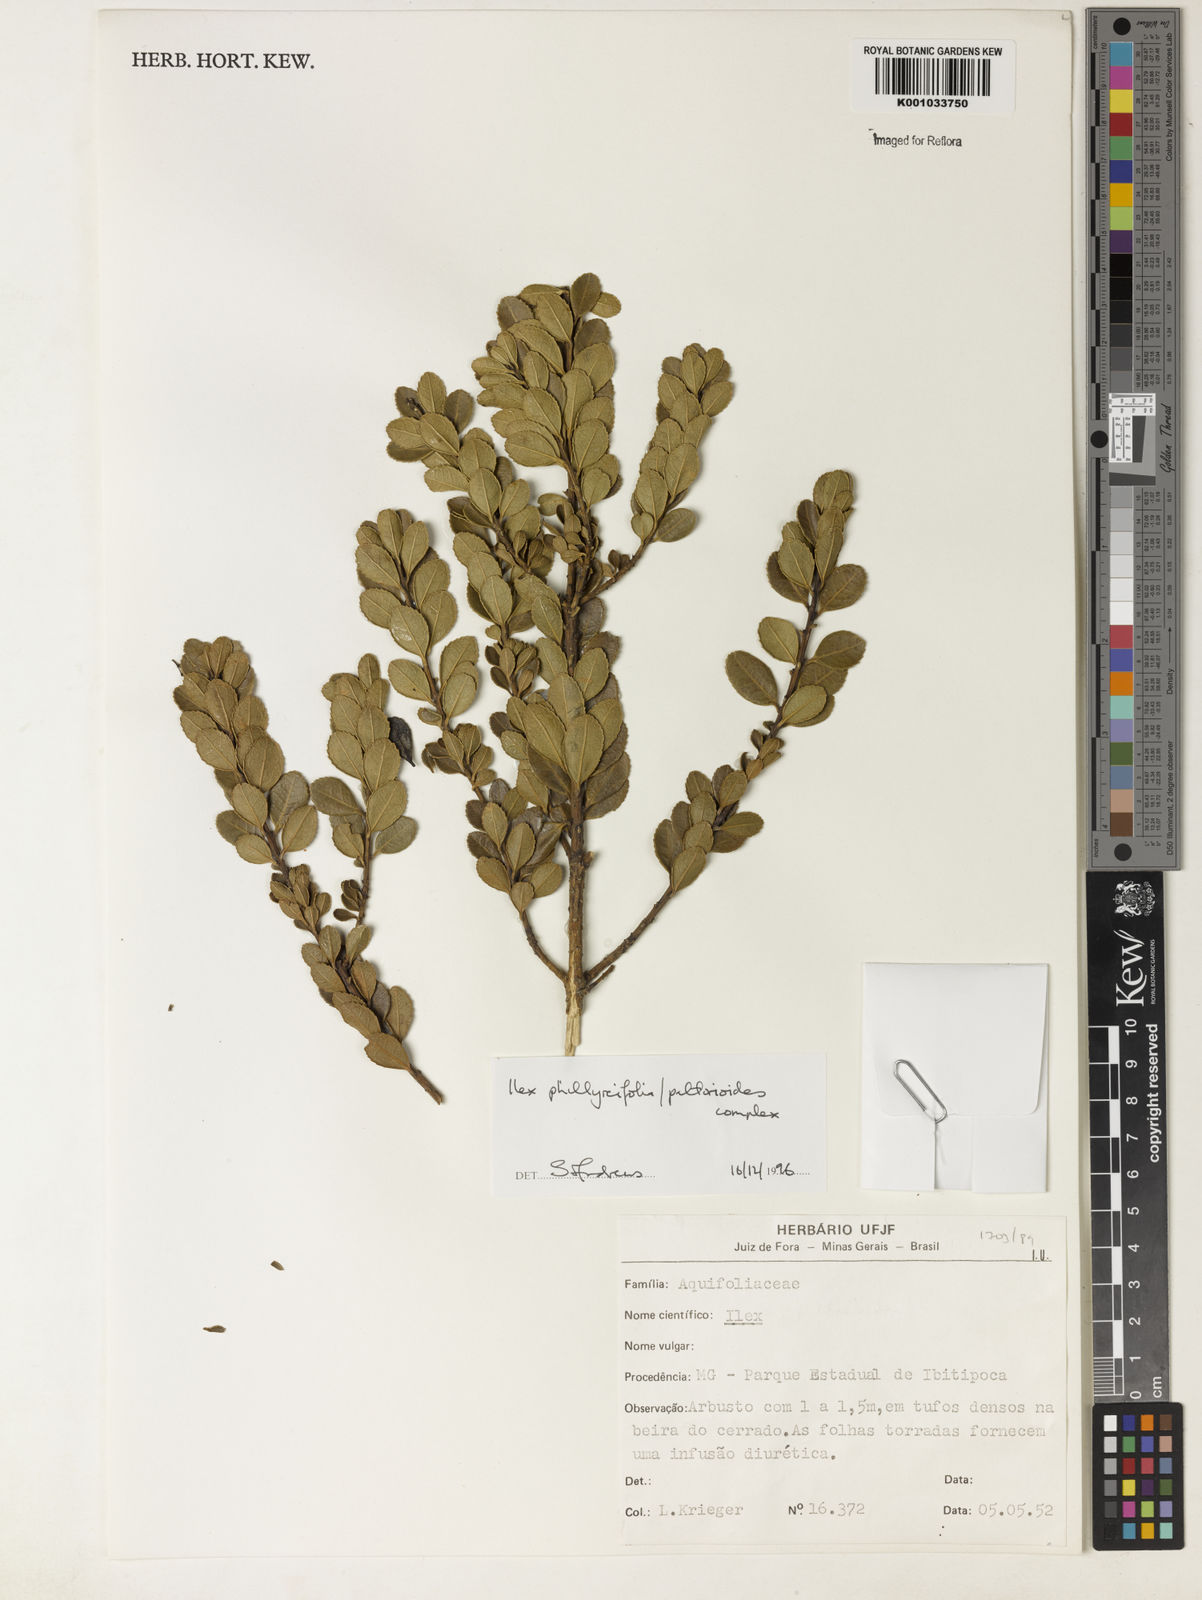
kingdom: Plantae
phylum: Tracheophyta
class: Magnoliopsida
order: Aquifoliales
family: Aquifoliaceae
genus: Ilex
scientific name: Ilex
